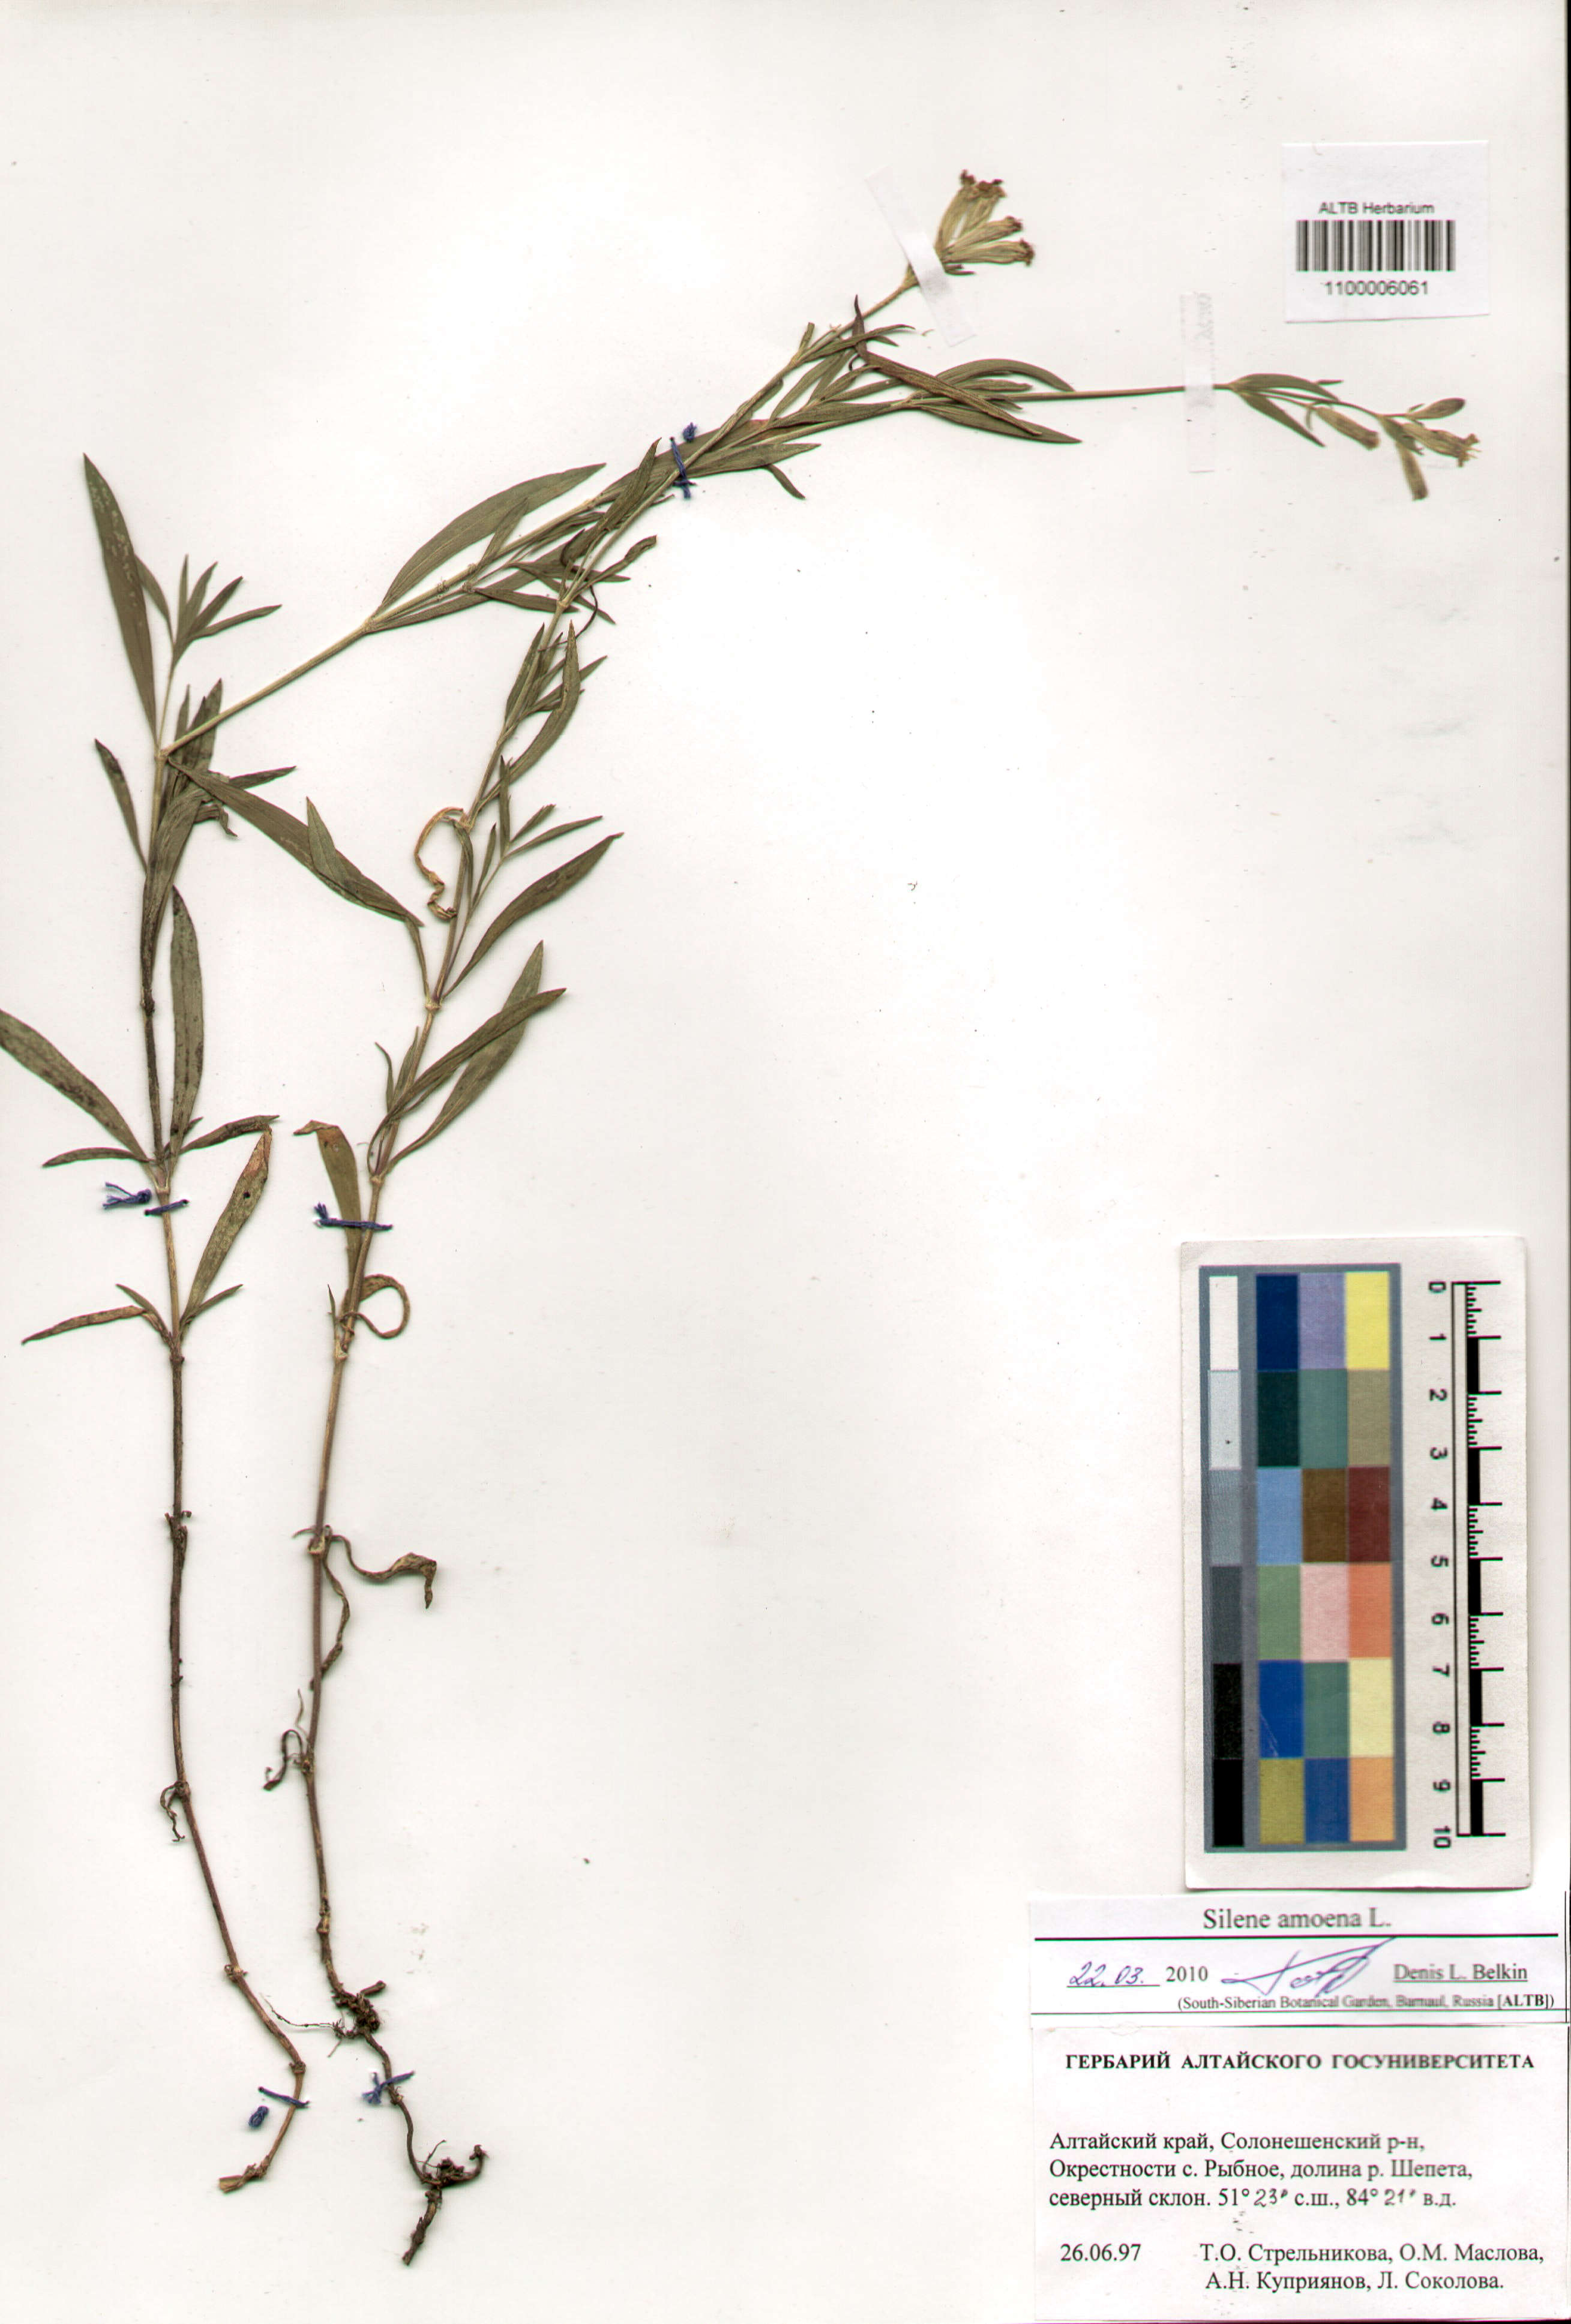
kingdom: Plantae
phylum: Tracheophyta
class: Magnoliopsida
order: Caryophyllales
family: Caryophyllaceae
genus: Silene
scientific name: Silene amoena
